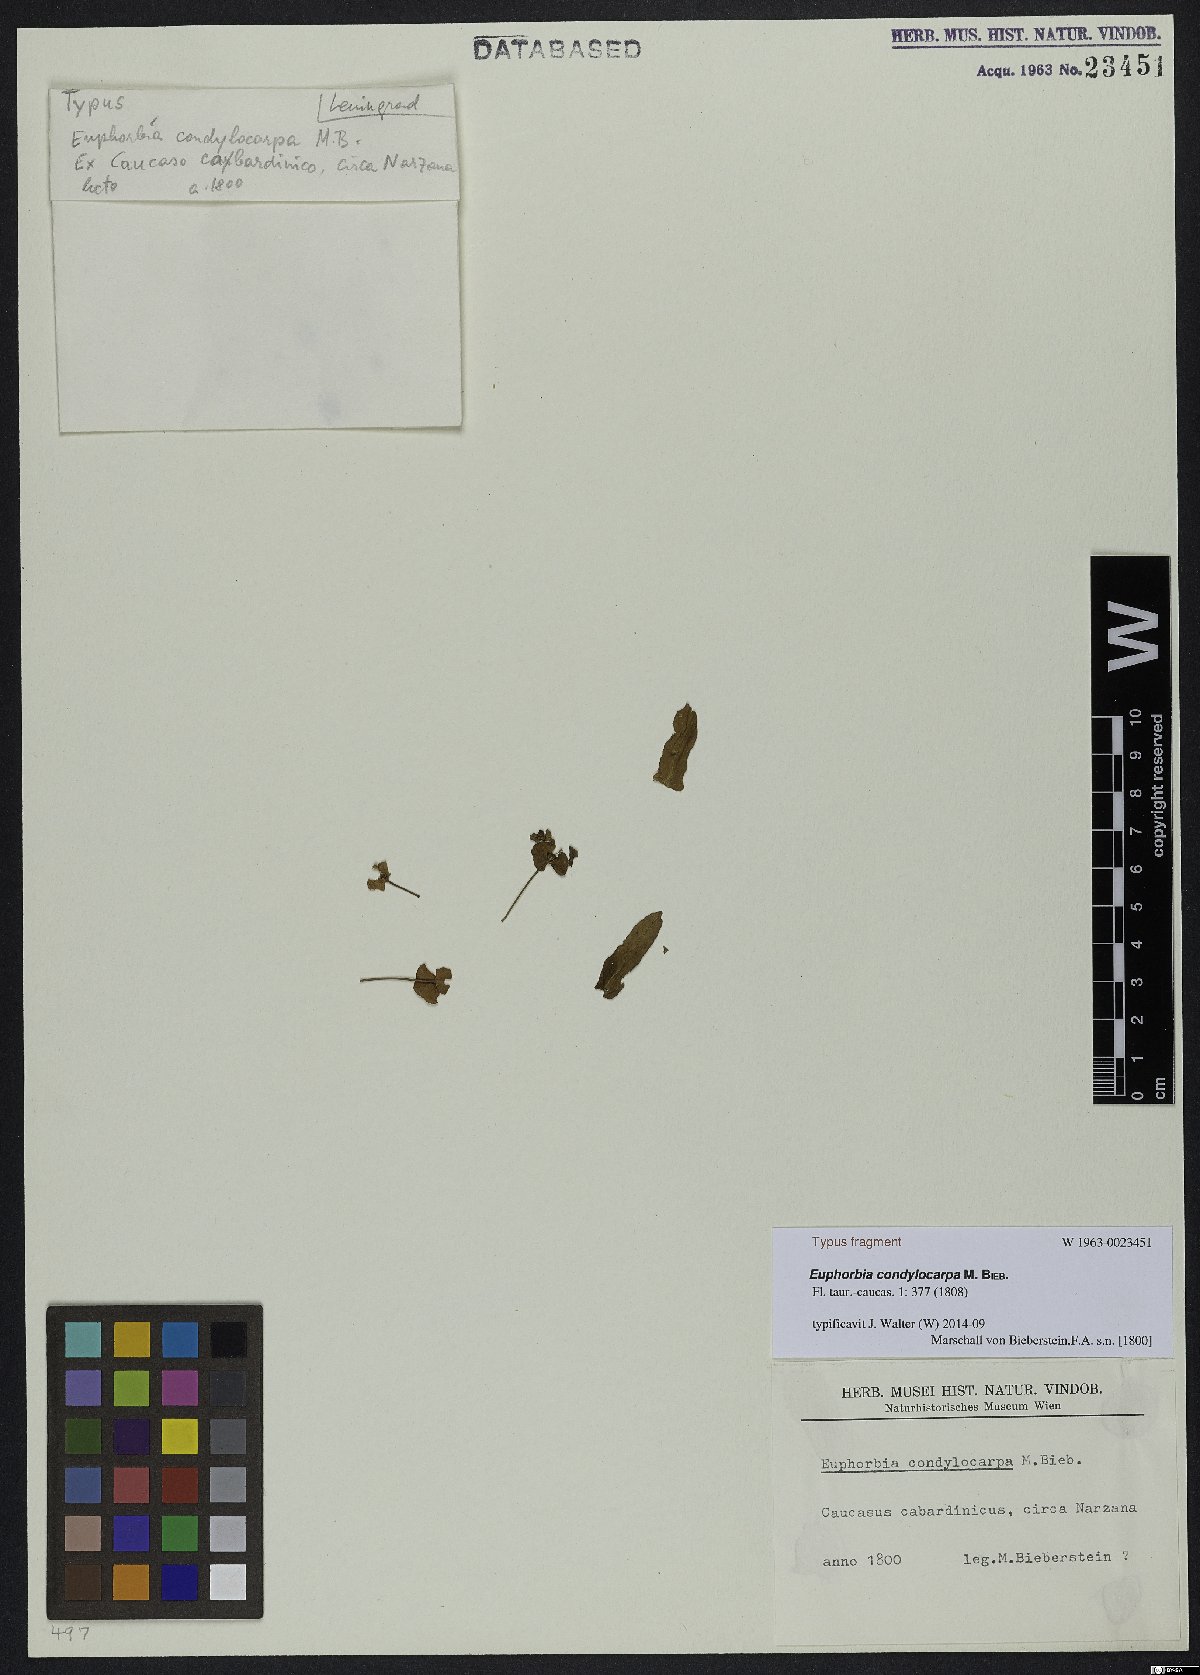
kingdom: Plantae
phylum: Tracheophyta
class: Magnoliopsida
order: Malpighiales
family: Euphorbiaceae
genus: Euphorbia
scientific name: Euphorbia condylocarpa
